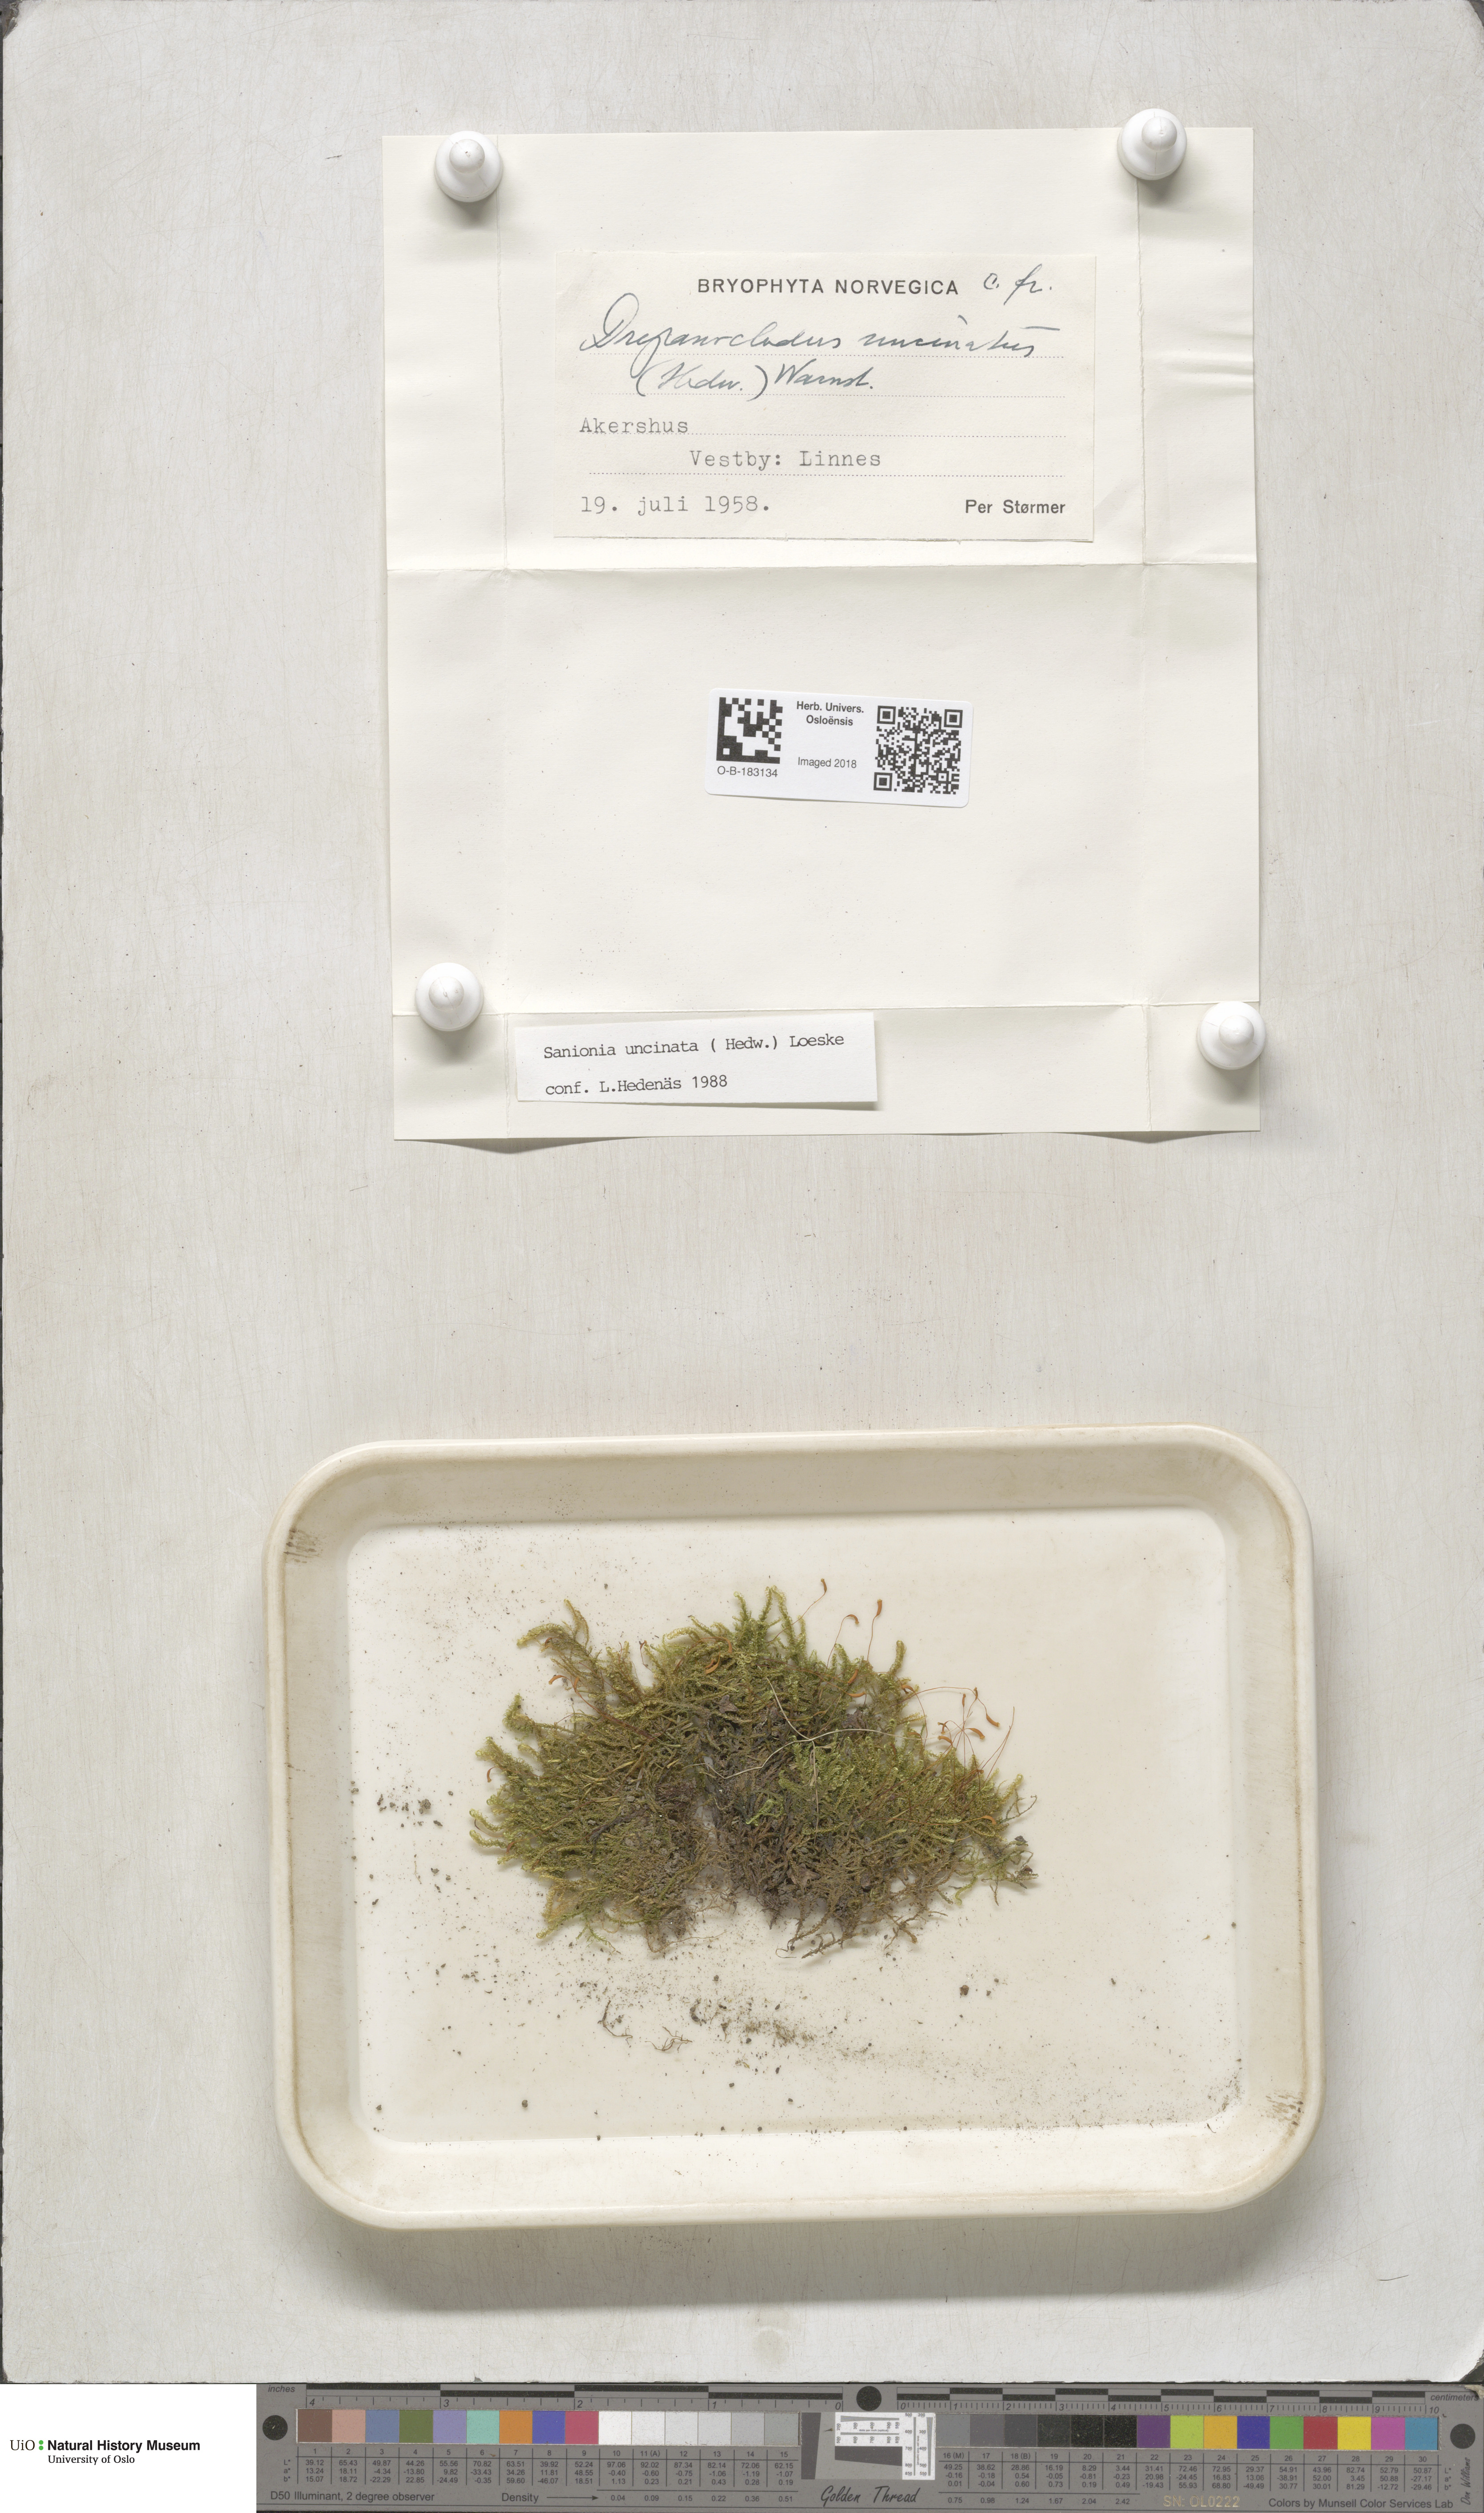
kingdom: Plantae
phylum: Bryophyta
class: Bryopsida
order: Hypnales
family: Scorpidiaceae
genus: Sanionia
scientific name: Sanionia uncinata
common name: Sickle moss
